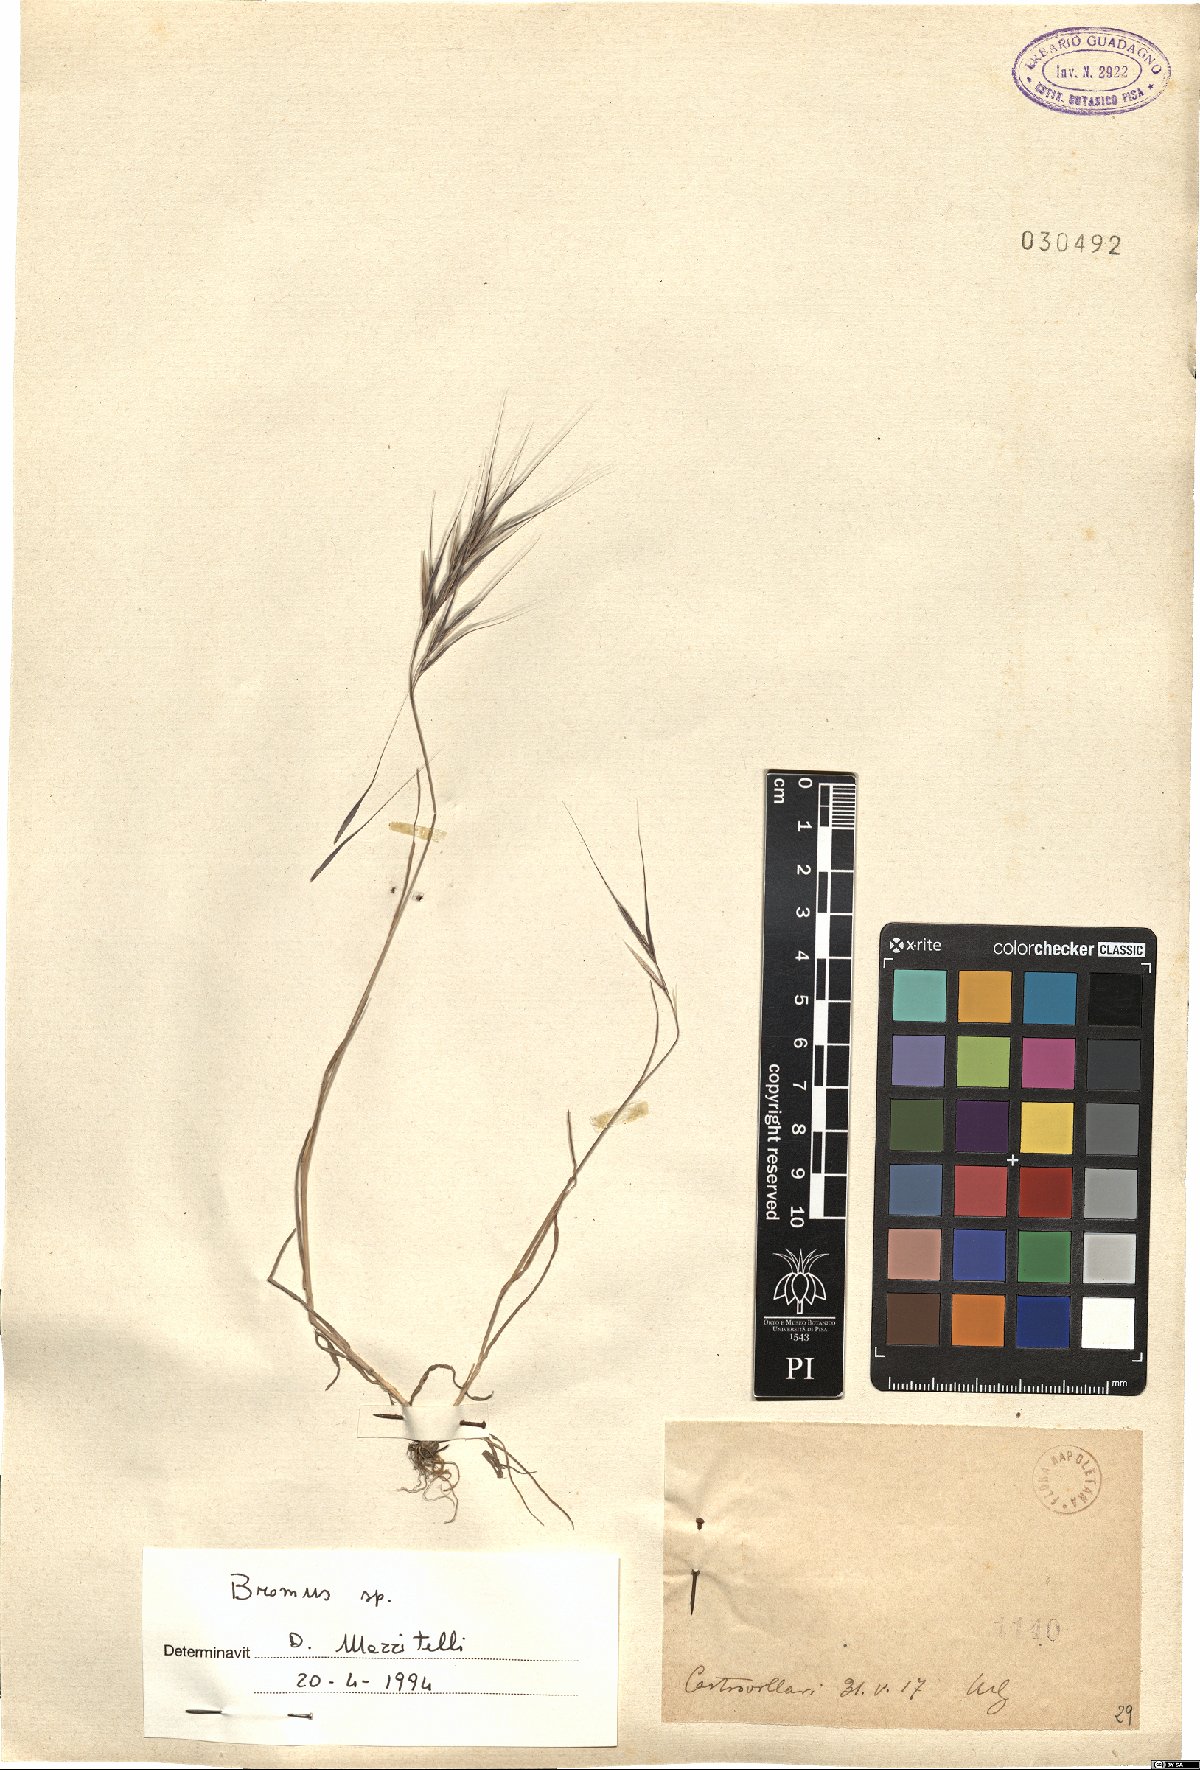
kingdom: Plantae
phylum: Tracheophyta
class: Liliopsida
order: Poales
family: Poaceae
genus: Bromus
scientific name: Bromus
